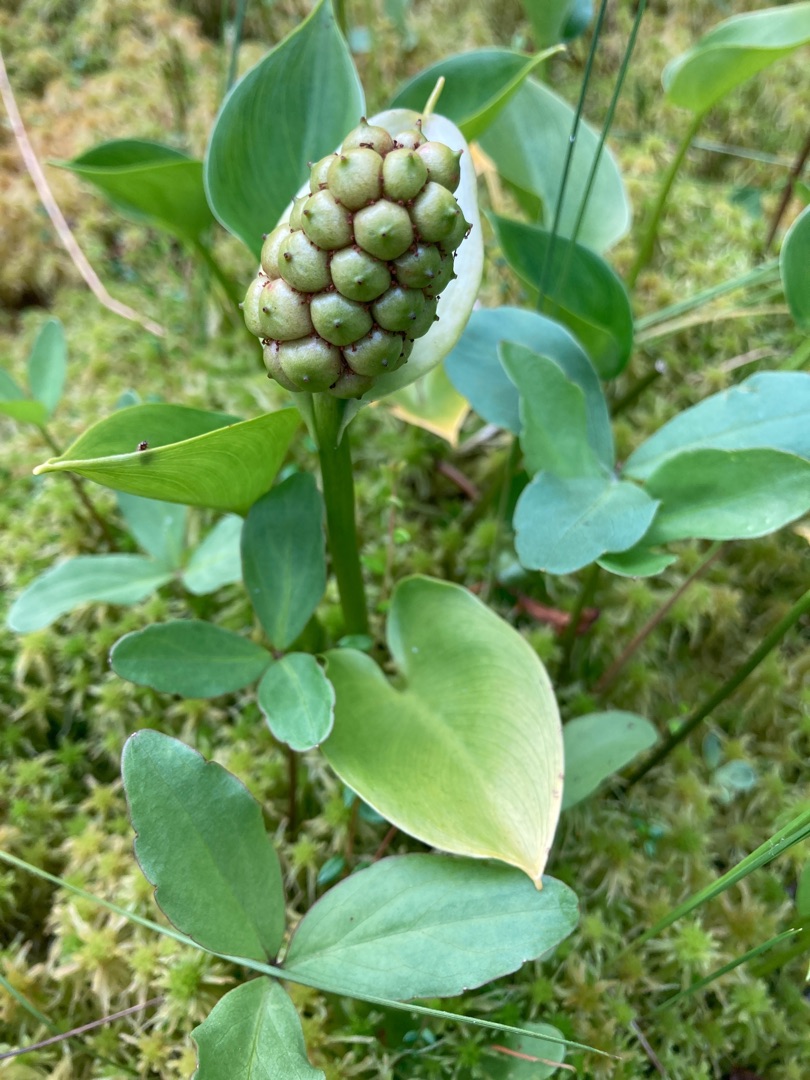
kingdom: Plantae
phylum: Tracheophyta
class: Liliopsida
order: Alismatales
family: Araceae
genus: Calla
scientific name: Calla palustris
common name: Kærmysse
